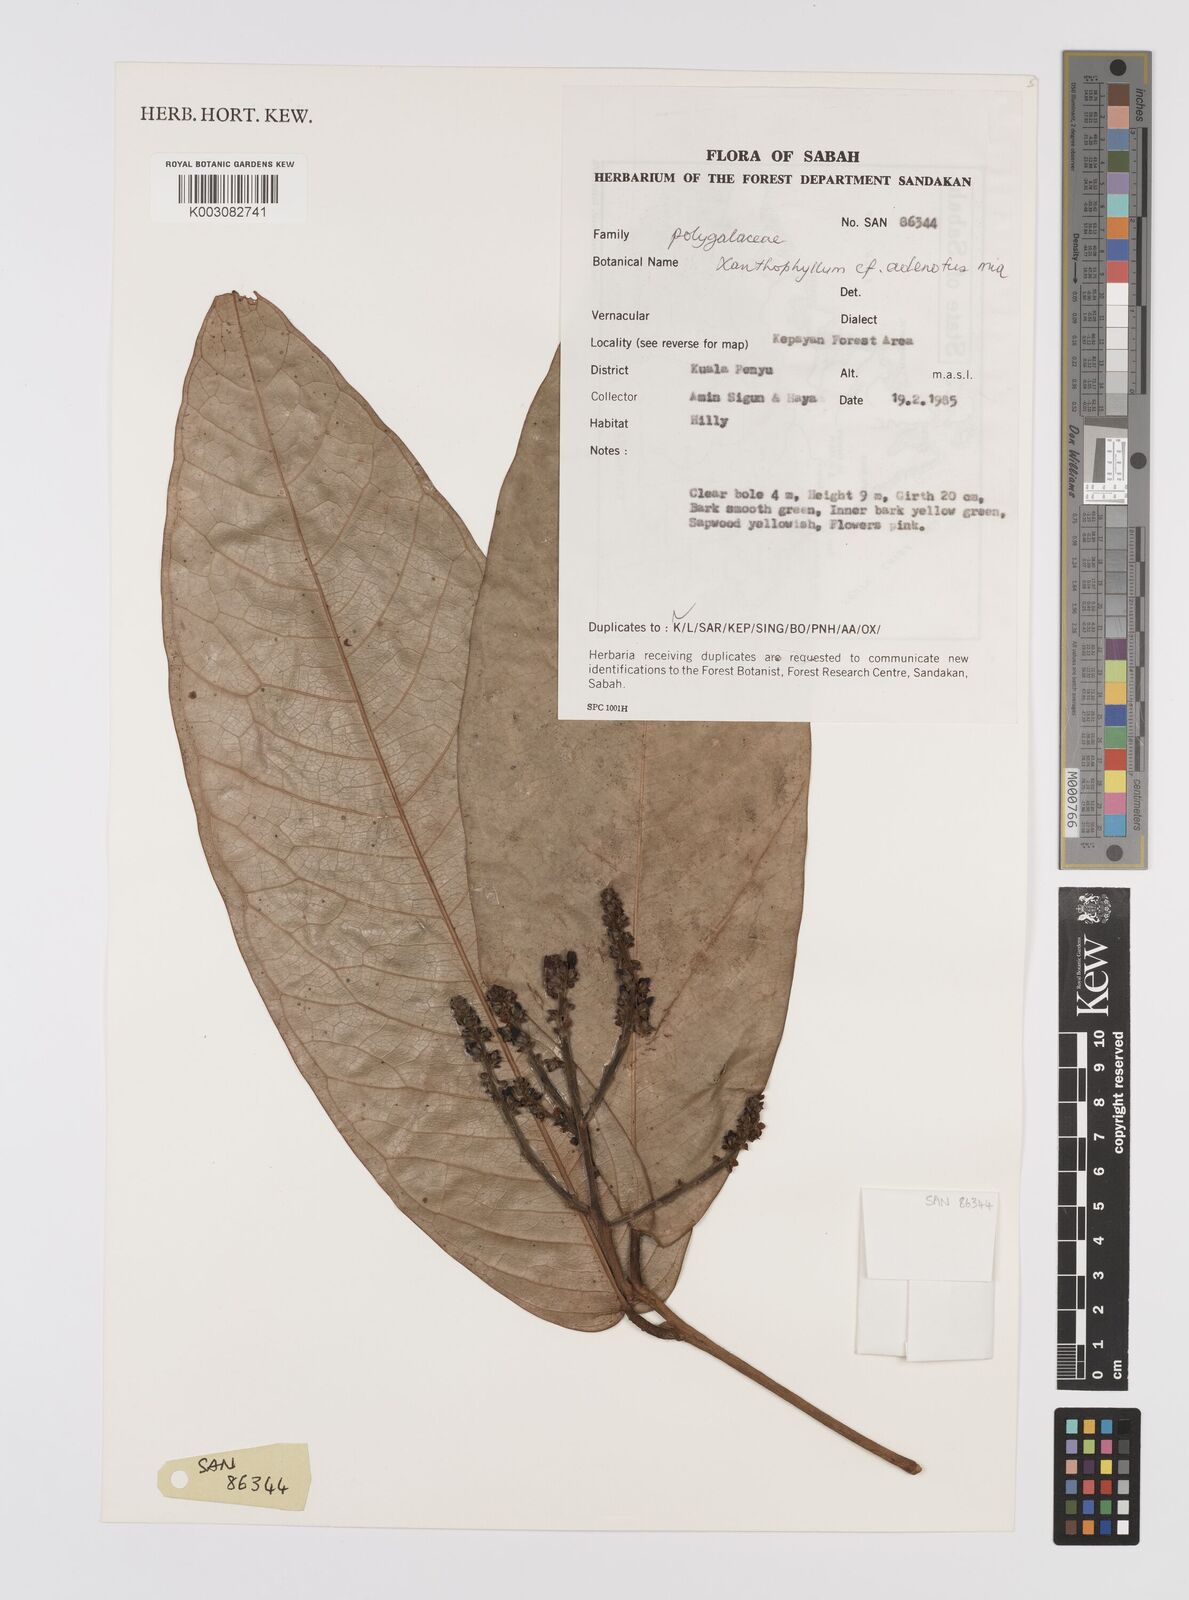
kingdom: Plantae
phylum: Tracheophyta
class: Magnoliopsida
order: Fabales
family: Polygalaceae
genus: Xanthophyllum
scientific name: Xanthophyllum adenotus
